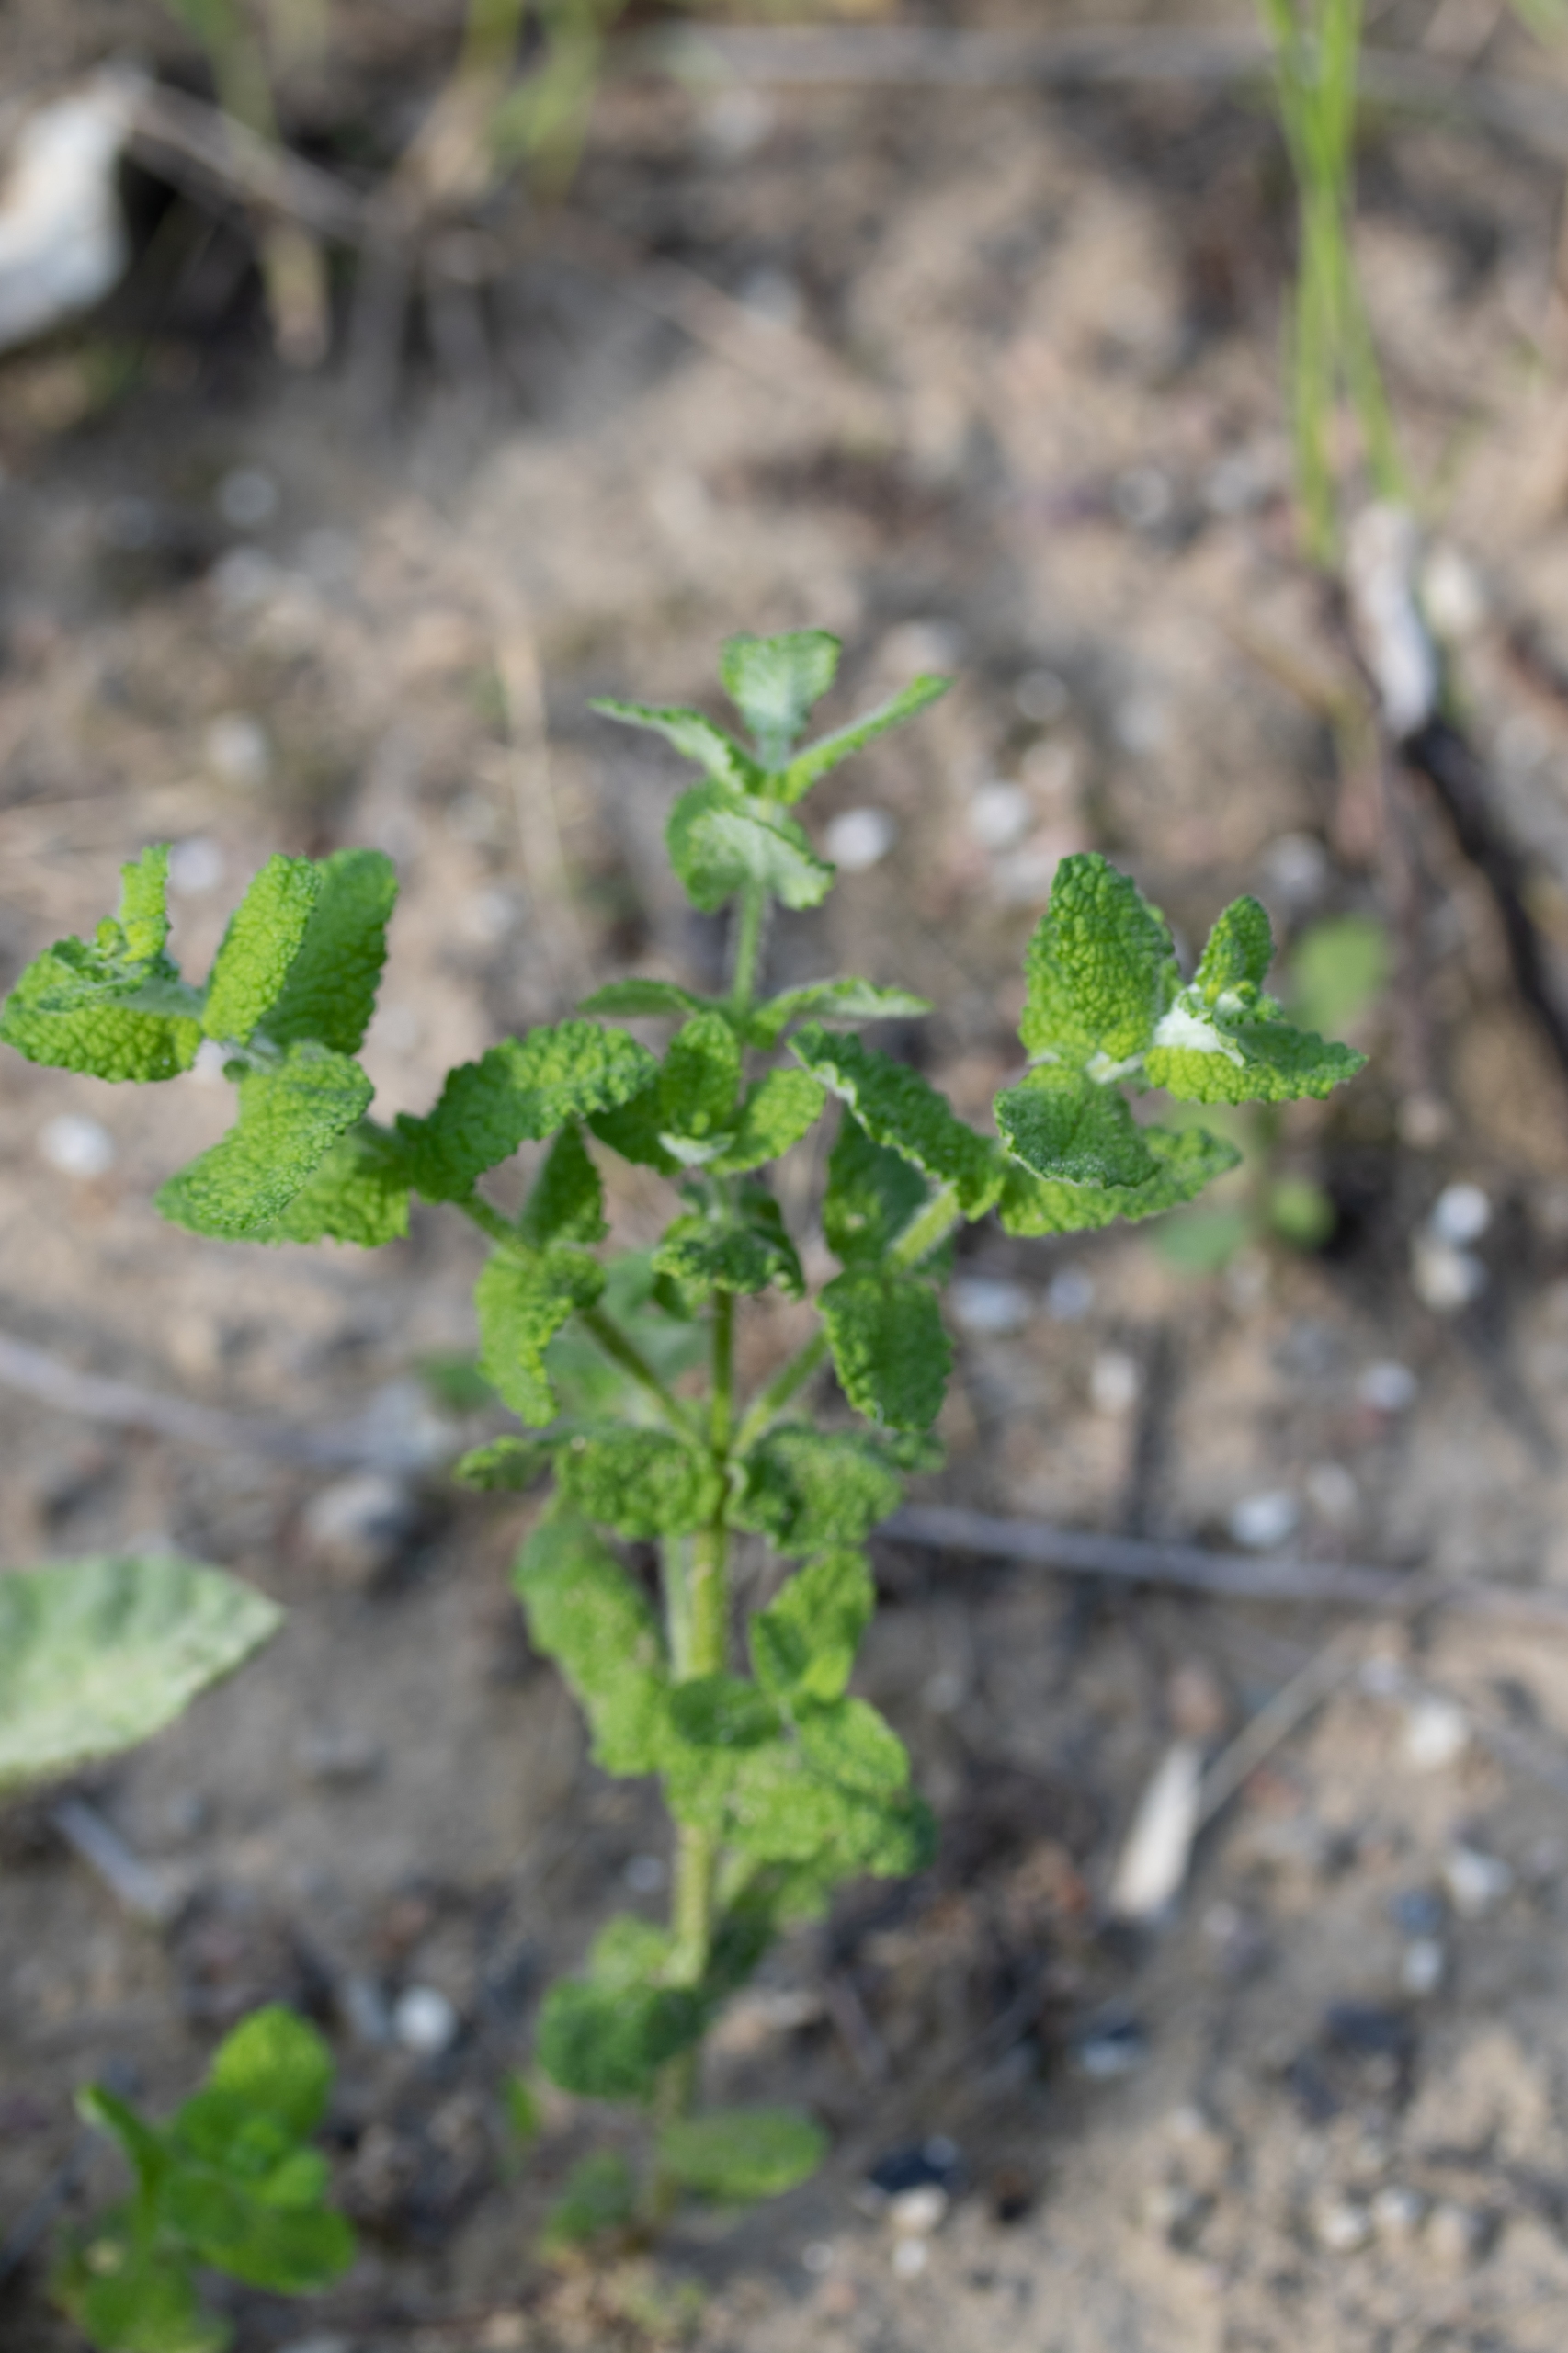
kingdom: Plantae
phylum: Tracheophyta
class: Magnoliopsida
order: Lamiales
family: Lamiaceae
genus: Mentha
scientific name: Mentha suaveolens
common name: Rundbladet mynte
